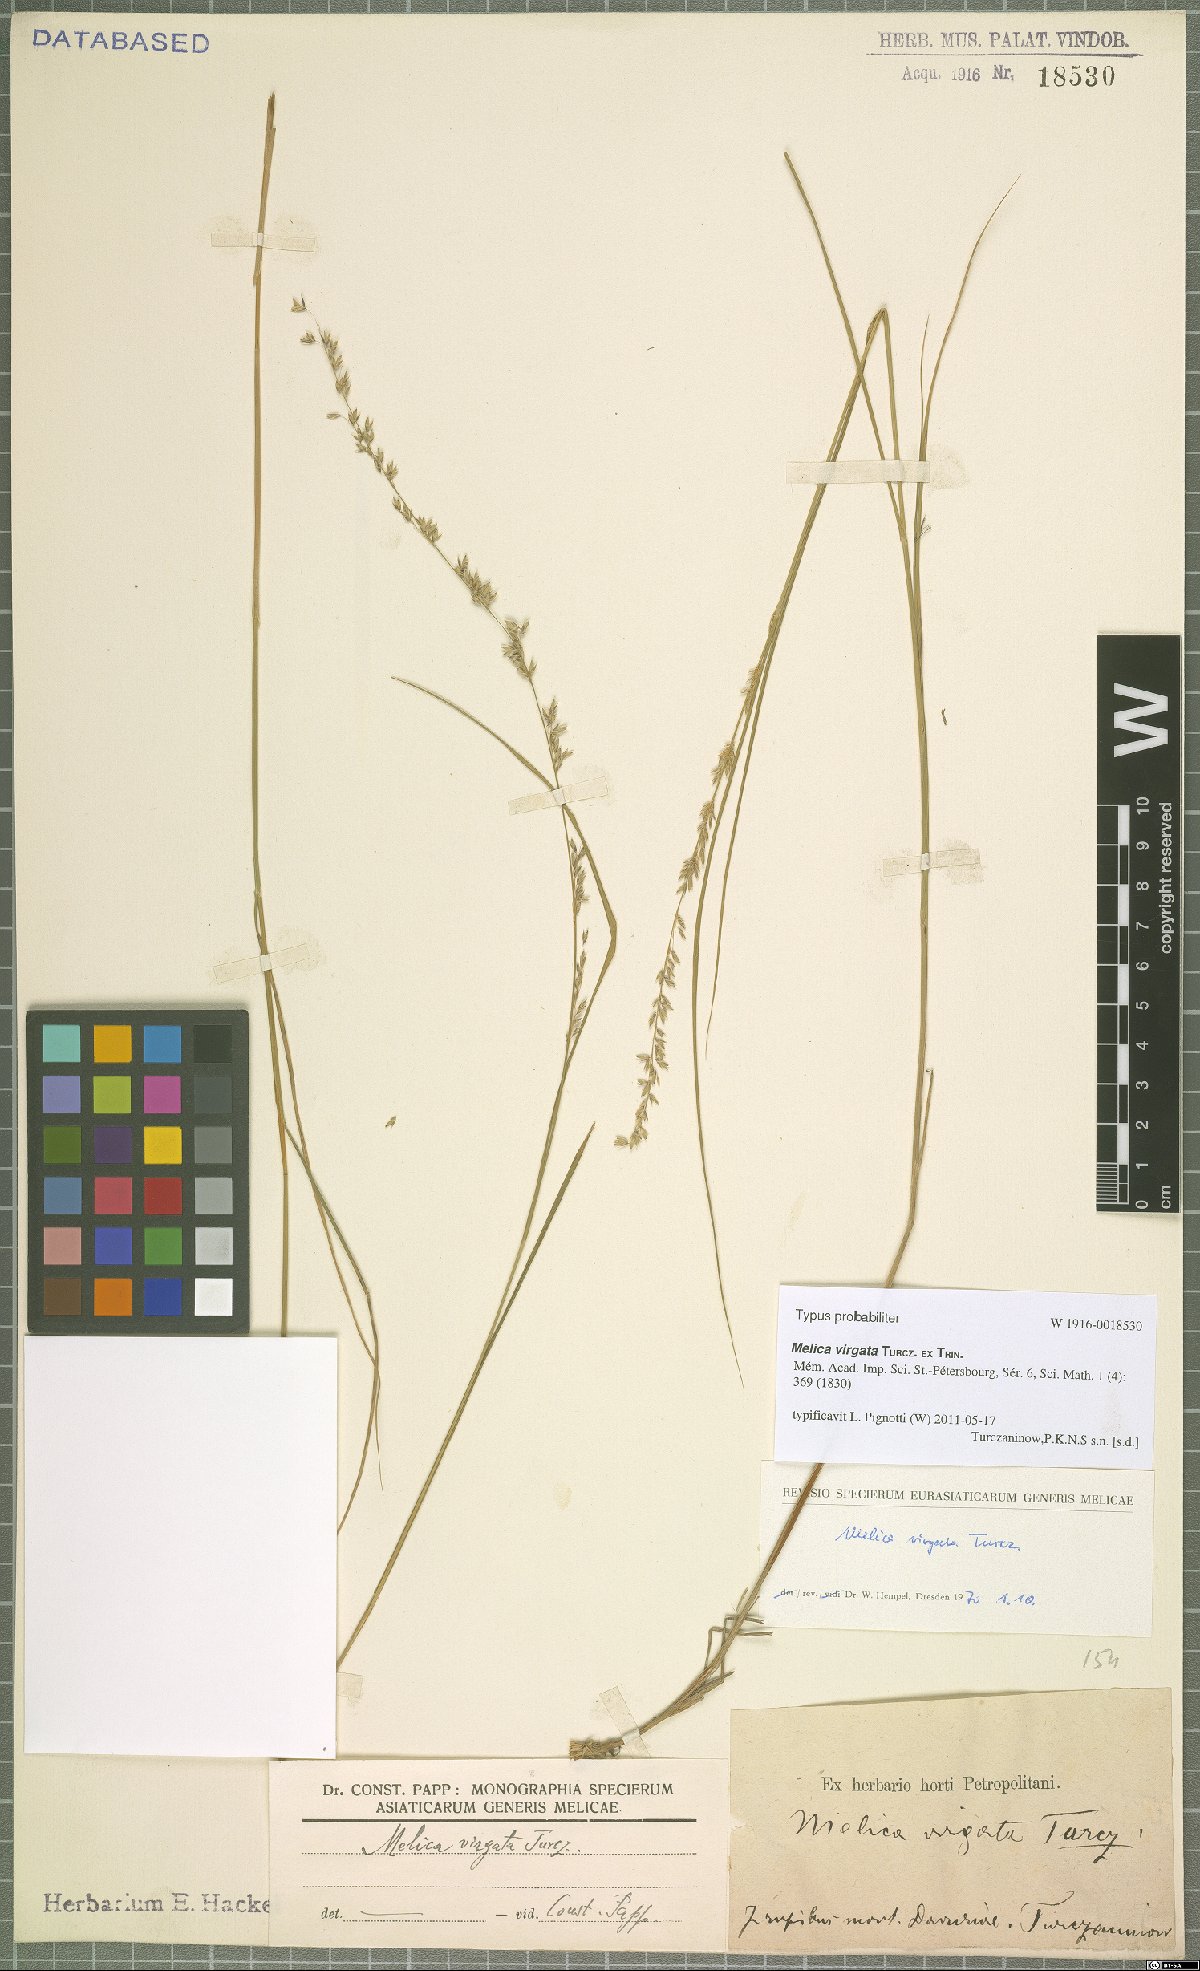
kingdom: Plantae
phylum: Tracheophyta
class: Liliopsida
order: Poales
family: Poaceae
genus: Melica
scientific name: Melica virgata
